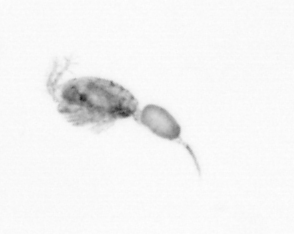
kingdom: Animalia
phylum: Arthropoda
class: Copepoda
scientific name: Copepoda
